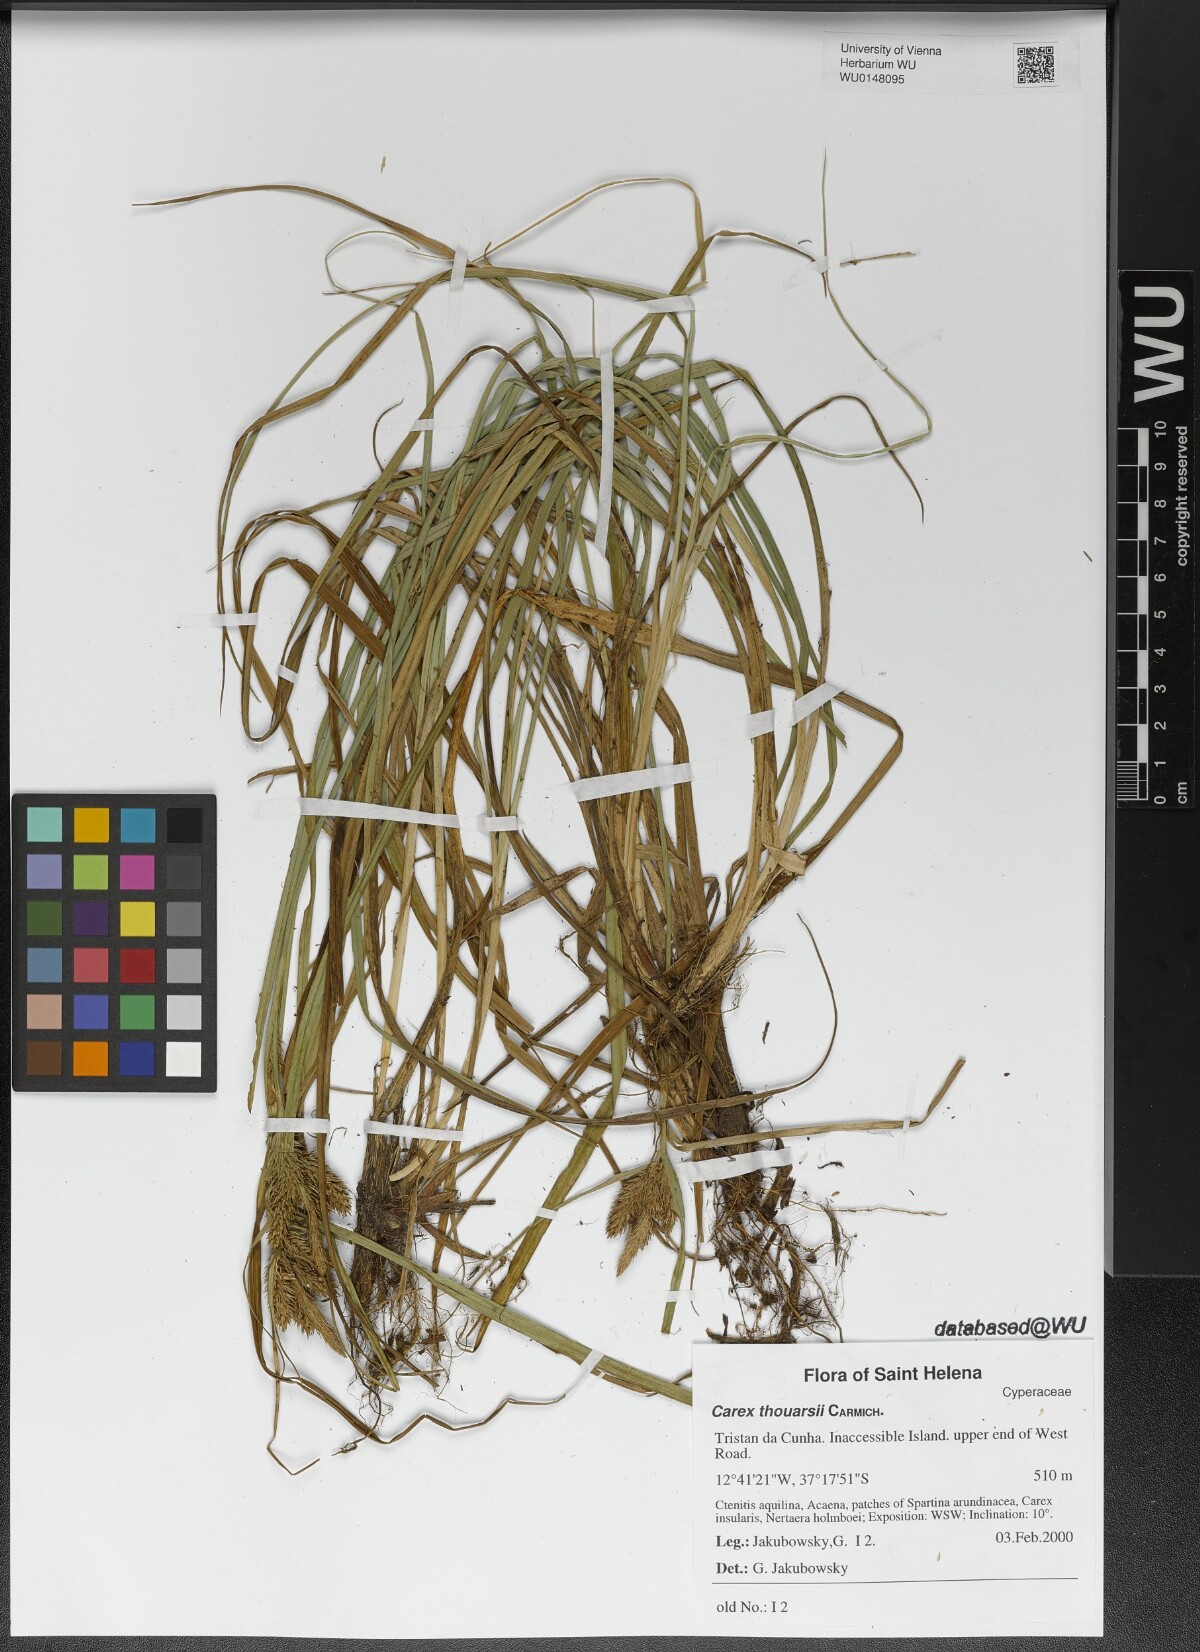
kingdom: Plantae
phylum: Tracheophyta
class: Liliopsida
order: Poales
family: Cyperaceae
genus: Carex
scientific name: Carex thouarsii
